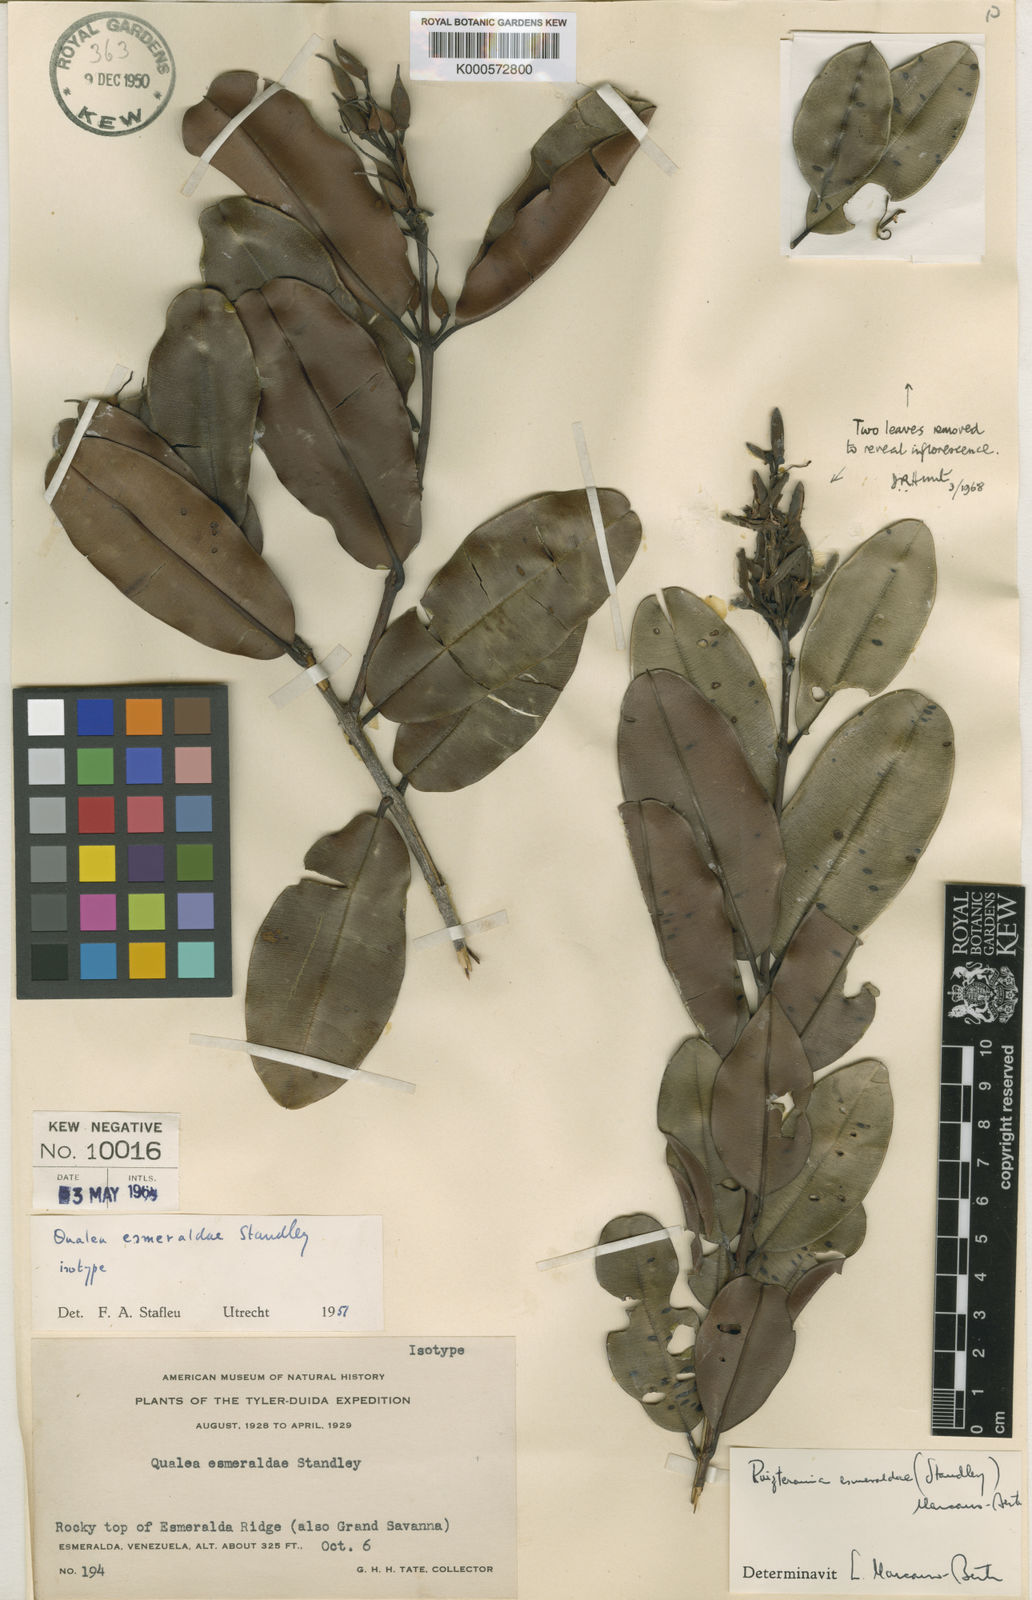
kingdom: Plantae
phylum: Tracheophyta
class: Magnoliopsida
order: Myrtales
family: Vochysiaceae
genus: Ruizterania
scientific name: Ruizterania esmeraldae
